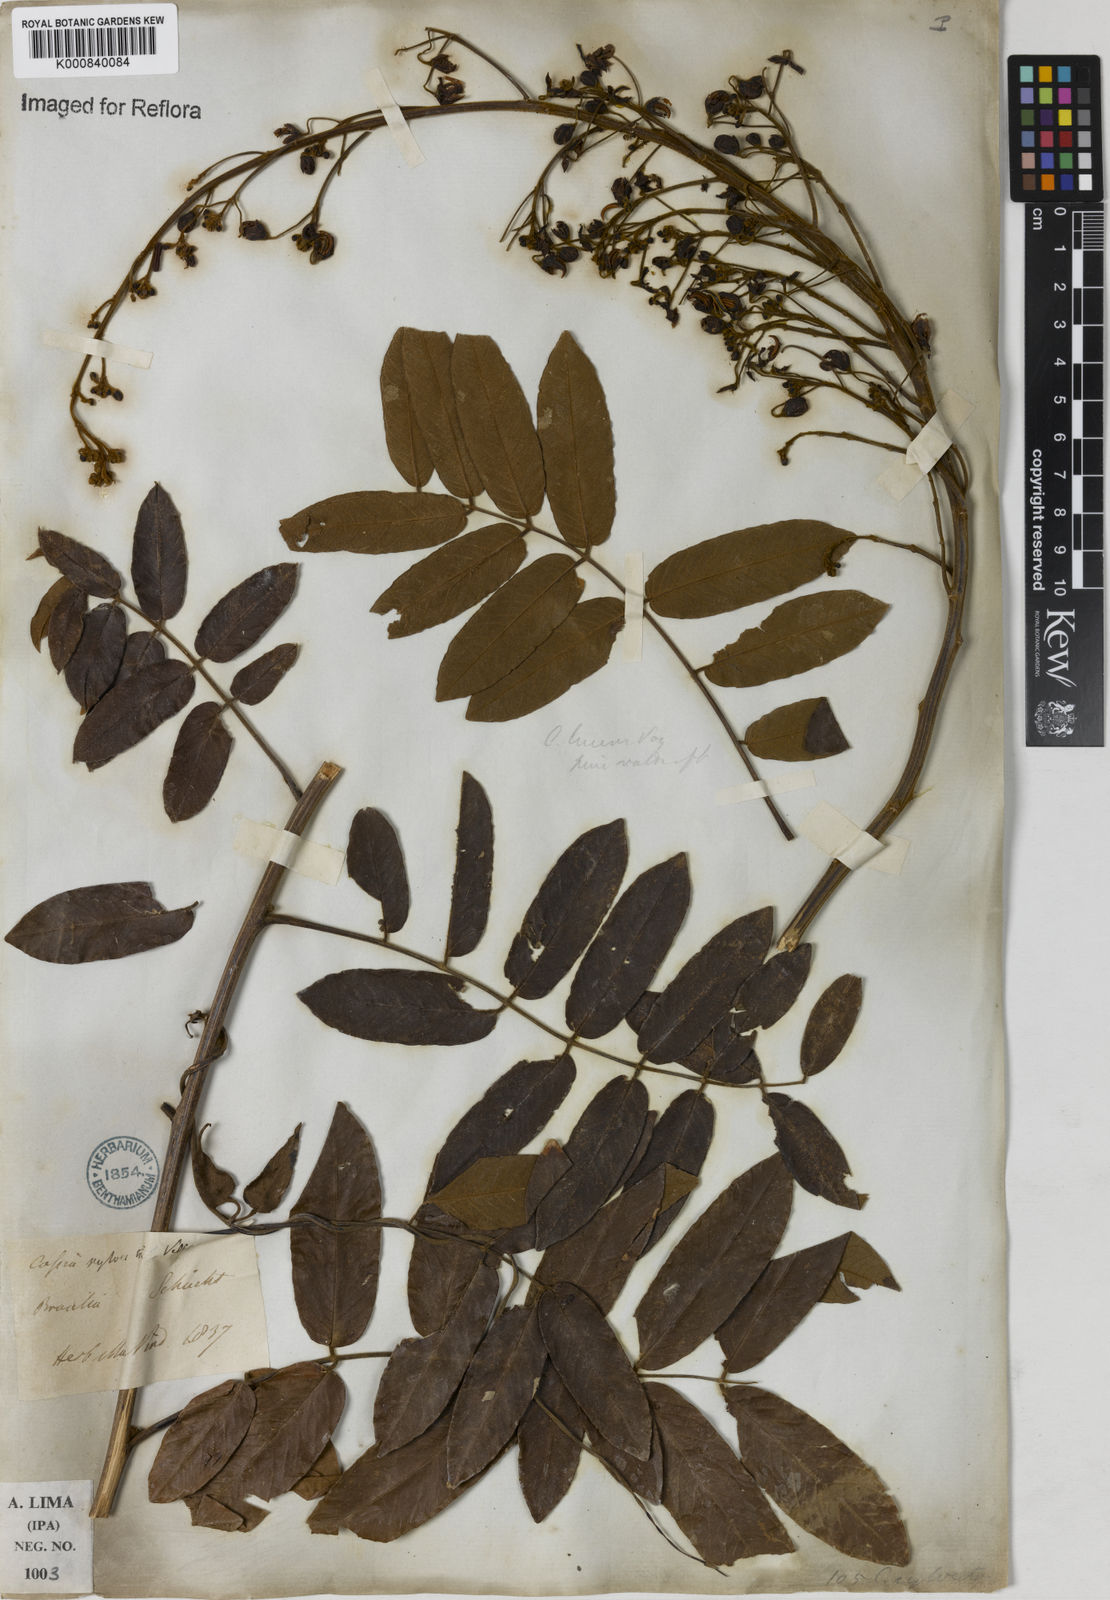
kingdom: Plantae
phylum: Tracheophyta
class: Magnoliopsida
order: Fabales
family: Fabaceae
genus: Senna
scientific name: Senna silvestris
